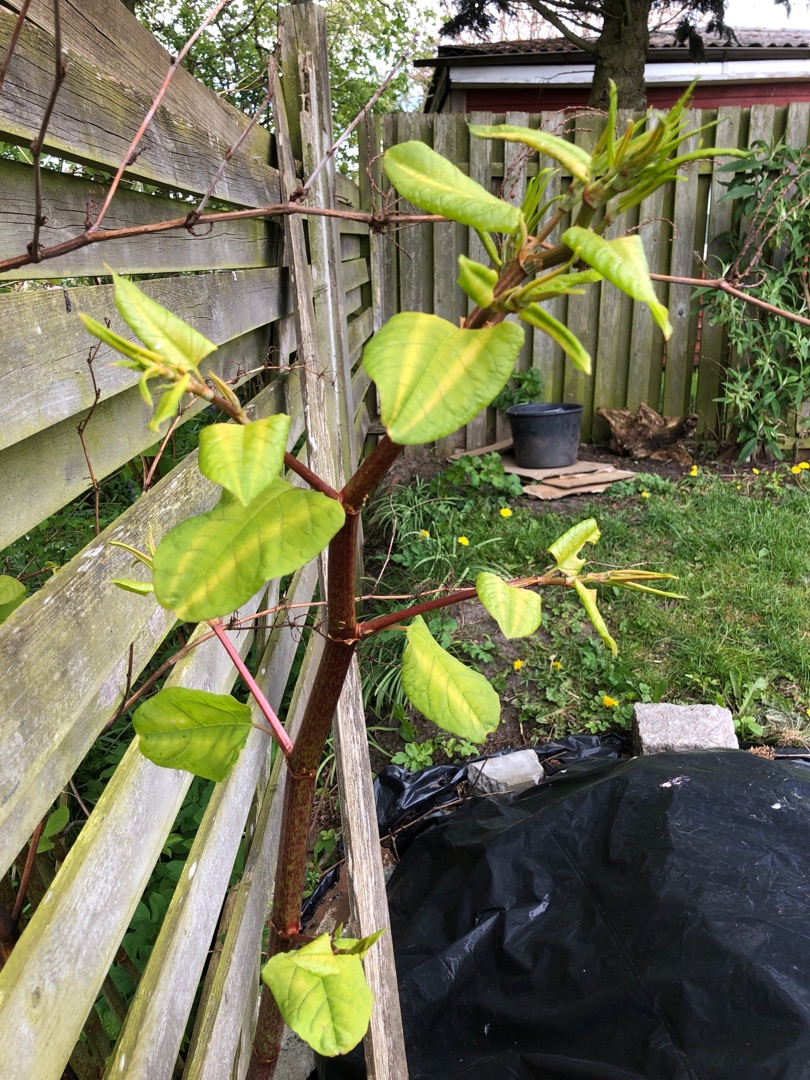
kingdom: Plantae
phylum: Tracheophyta
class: Magnoliopsida
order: Caryophyllales
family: Polygonaceae
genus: Reynoutria
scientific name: Reynoutria japonica
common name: Japan-pileurt
